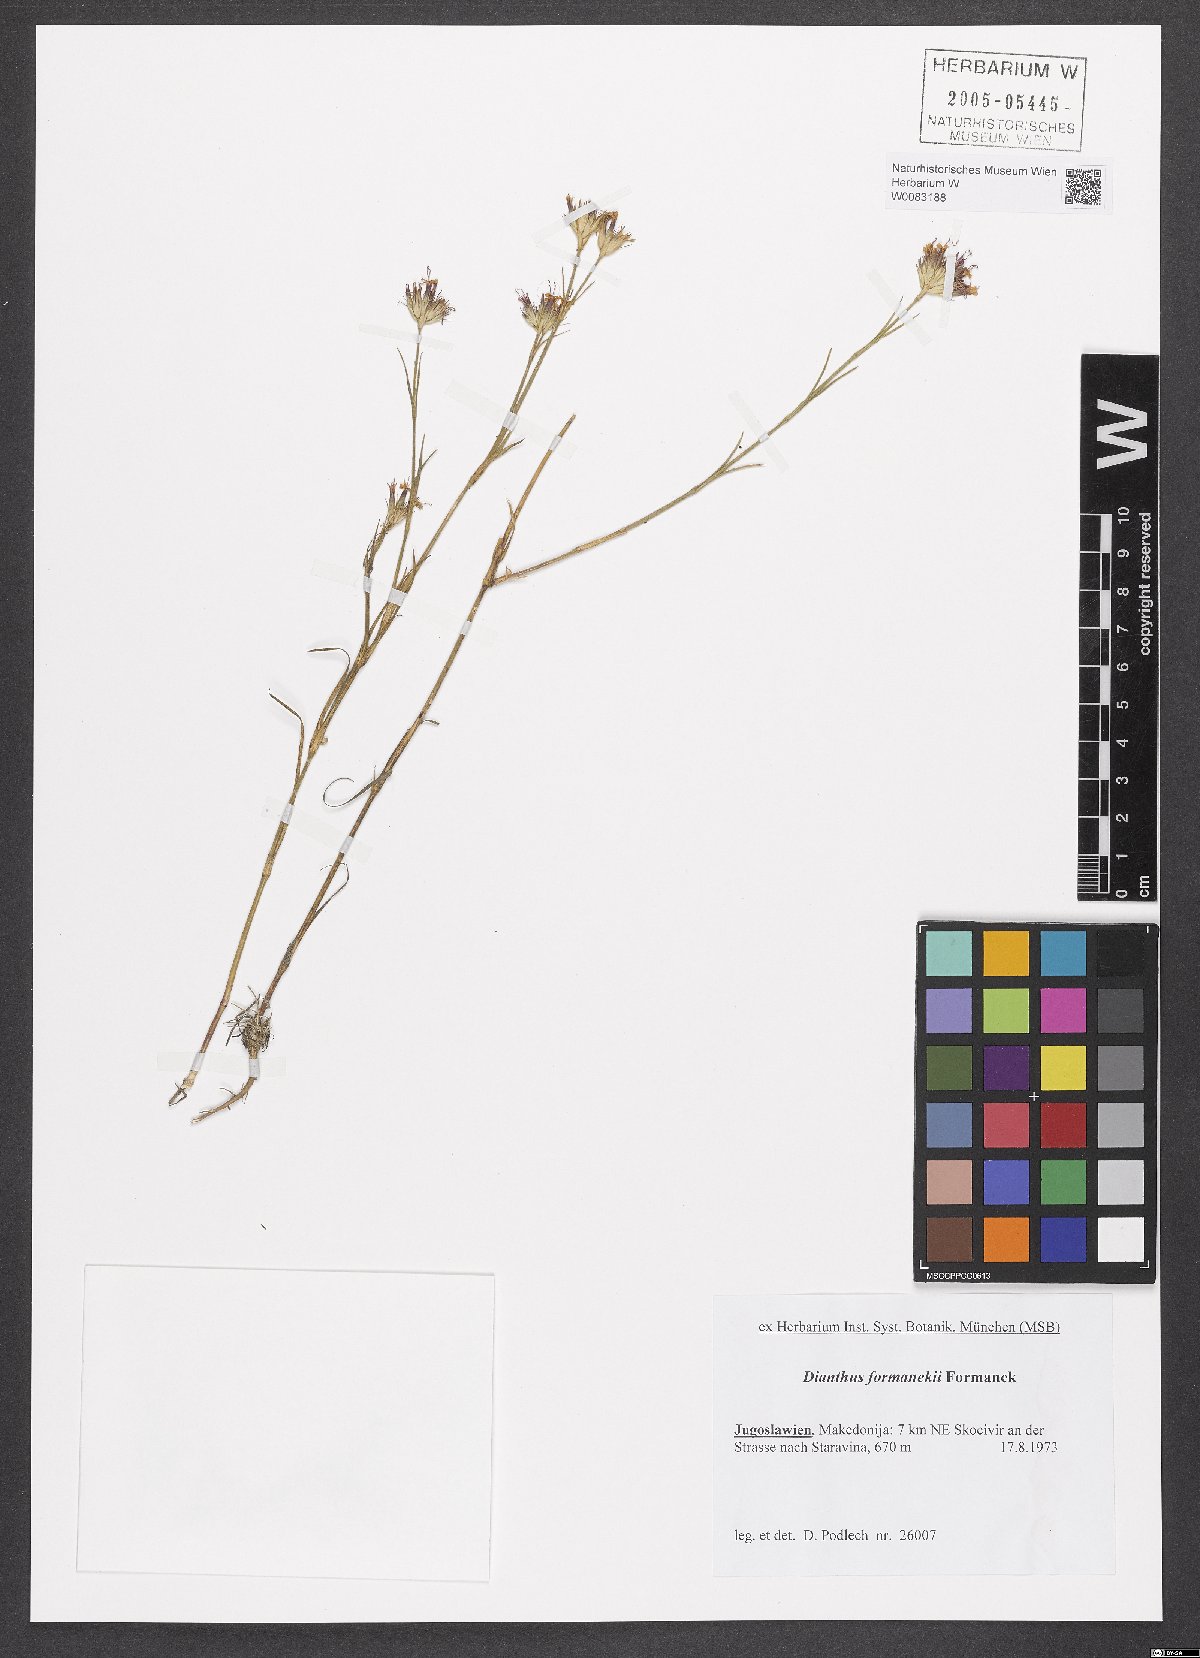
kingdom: Plantae
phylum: Tracheophyta
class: Magnoliopsida
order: Caryophyllales
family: Caryophyllaceae
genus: Dianthus
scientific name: Dianthus formanekii
